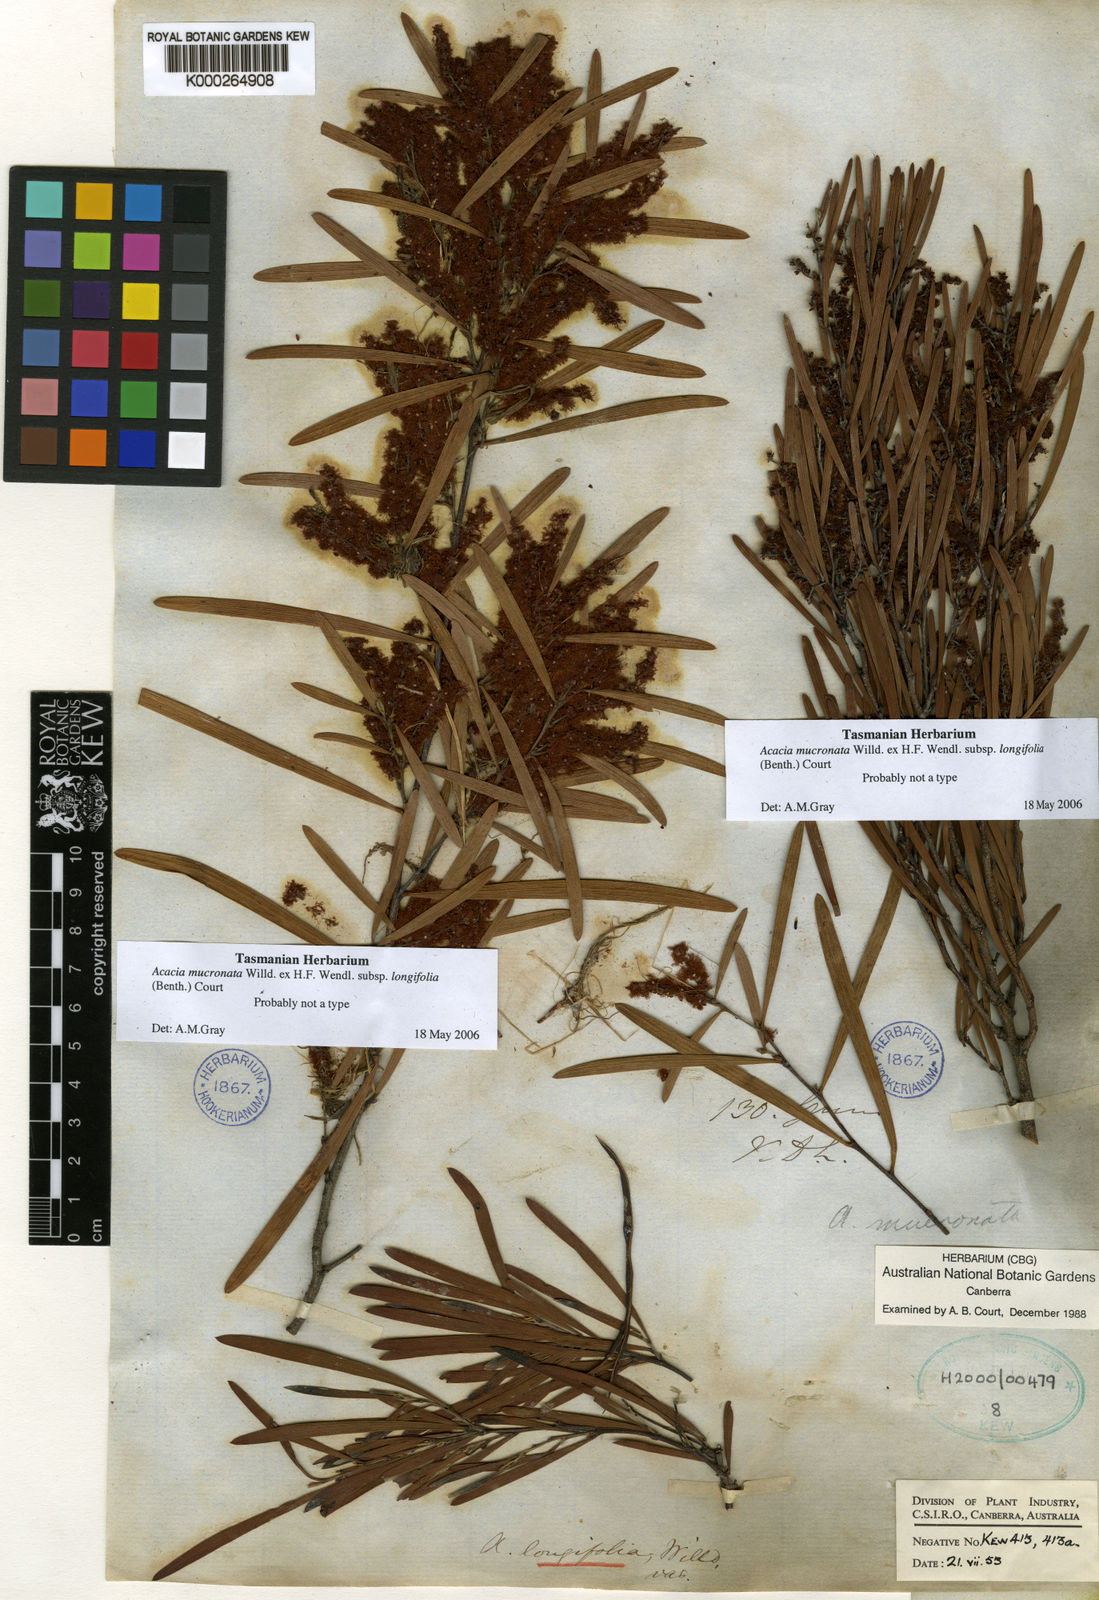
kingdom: Plantae
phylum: Tracheophyta
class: Magnoliopsida
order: Fabales
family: Fabaceae
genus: Acacia
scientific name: Acacia mucronata
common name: Variable sallow wattle
